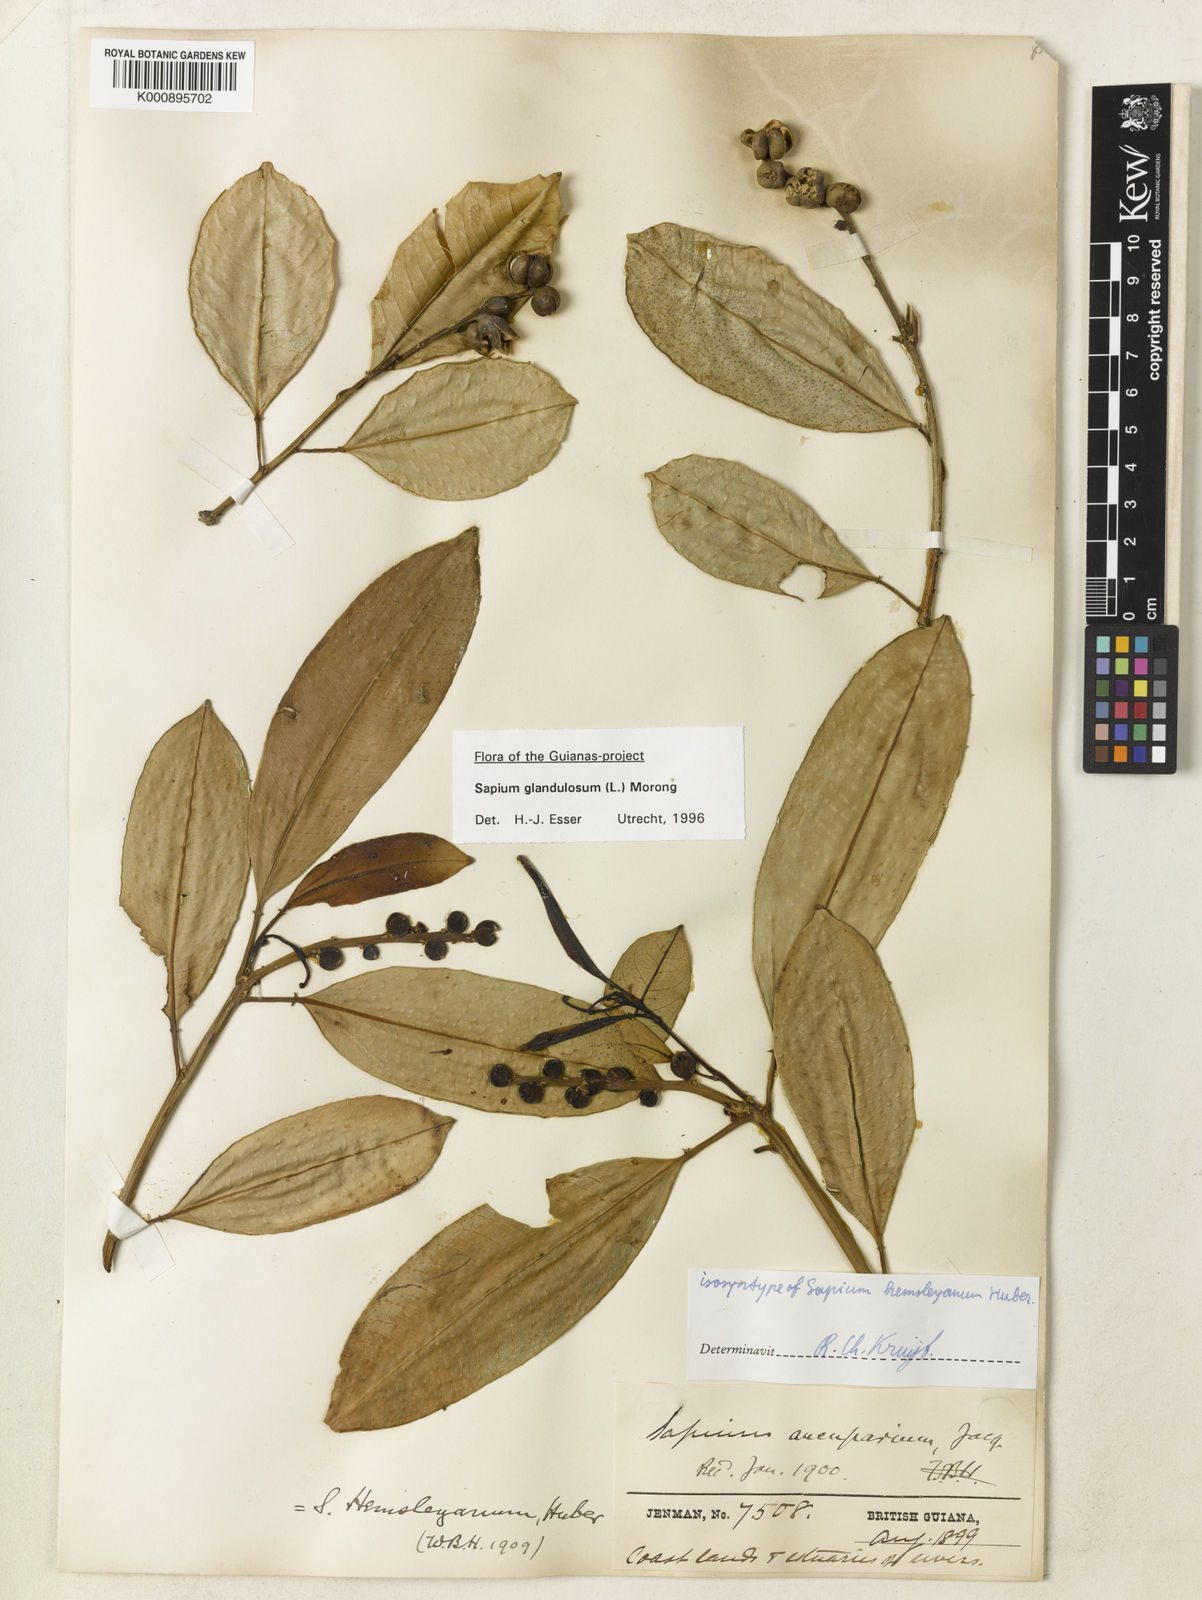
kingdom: Plantae
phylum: Tracheophyta
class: Magnoliopsida
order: Malpighiales
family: Euphorbiaceae
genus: Sapium
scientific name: Sapium glandulosum
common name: Milktree
